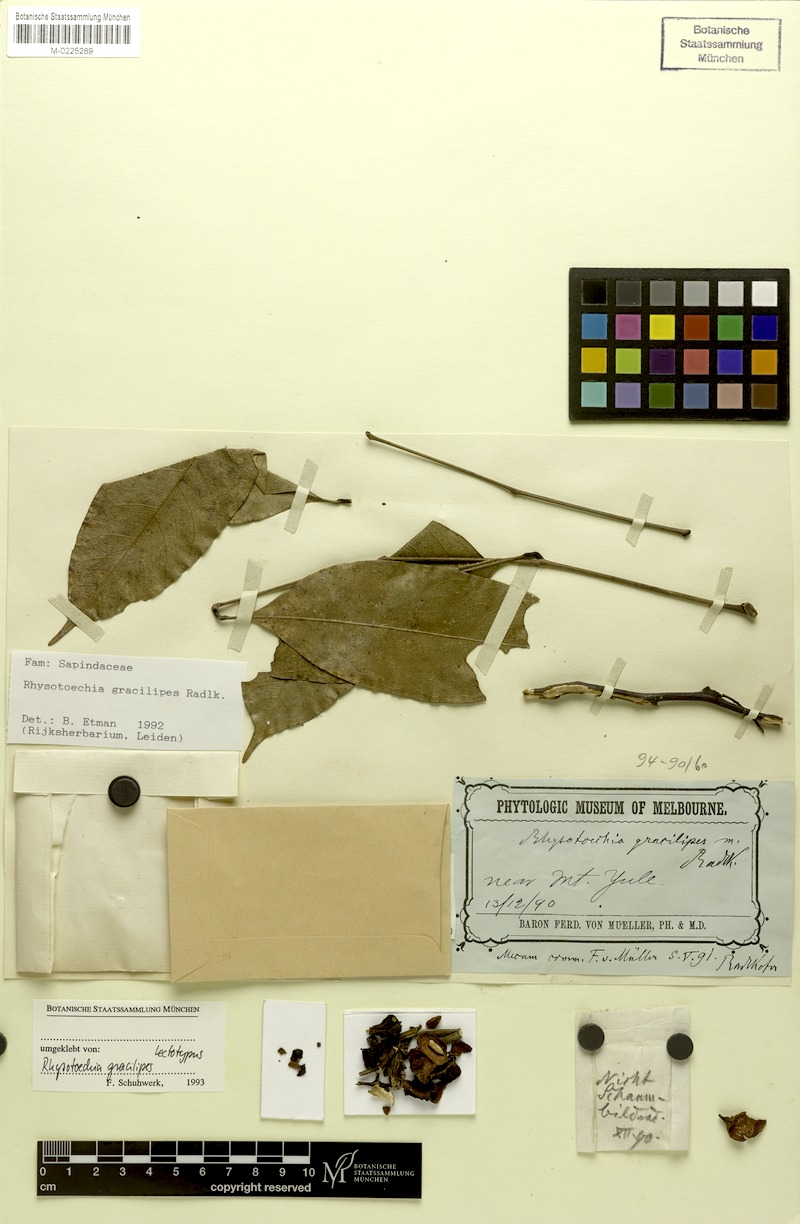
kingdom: Plantae
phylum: Tracheophyta
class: Magnoliopsida
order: Sapindales
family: Sapindaceae
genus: Rhysotoechia
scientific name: Rhysotoechia gracilipes
